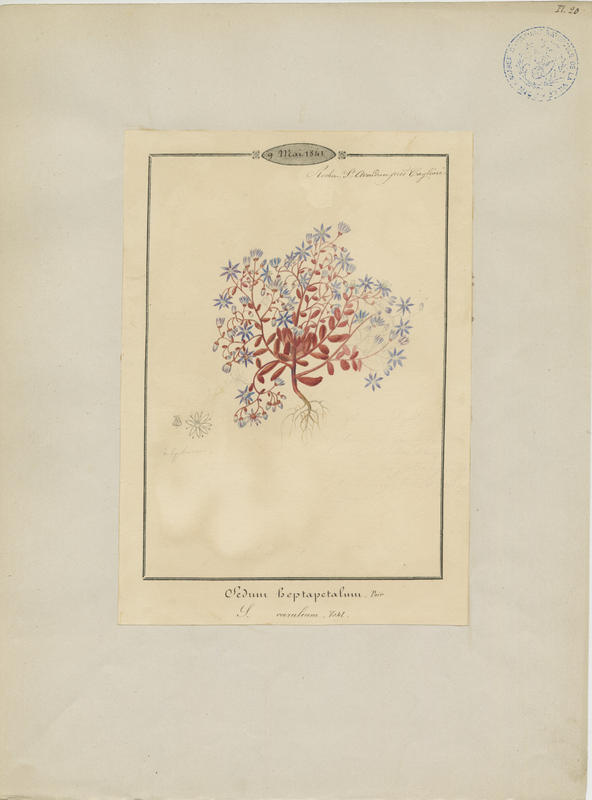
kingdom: Plantae
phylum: Tracheophyta
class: Magnoliopsida
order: Saxifragales
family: Crassulaceae
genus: Sedum
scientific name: Sedum hispanicum
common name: Spanish stonecrop
